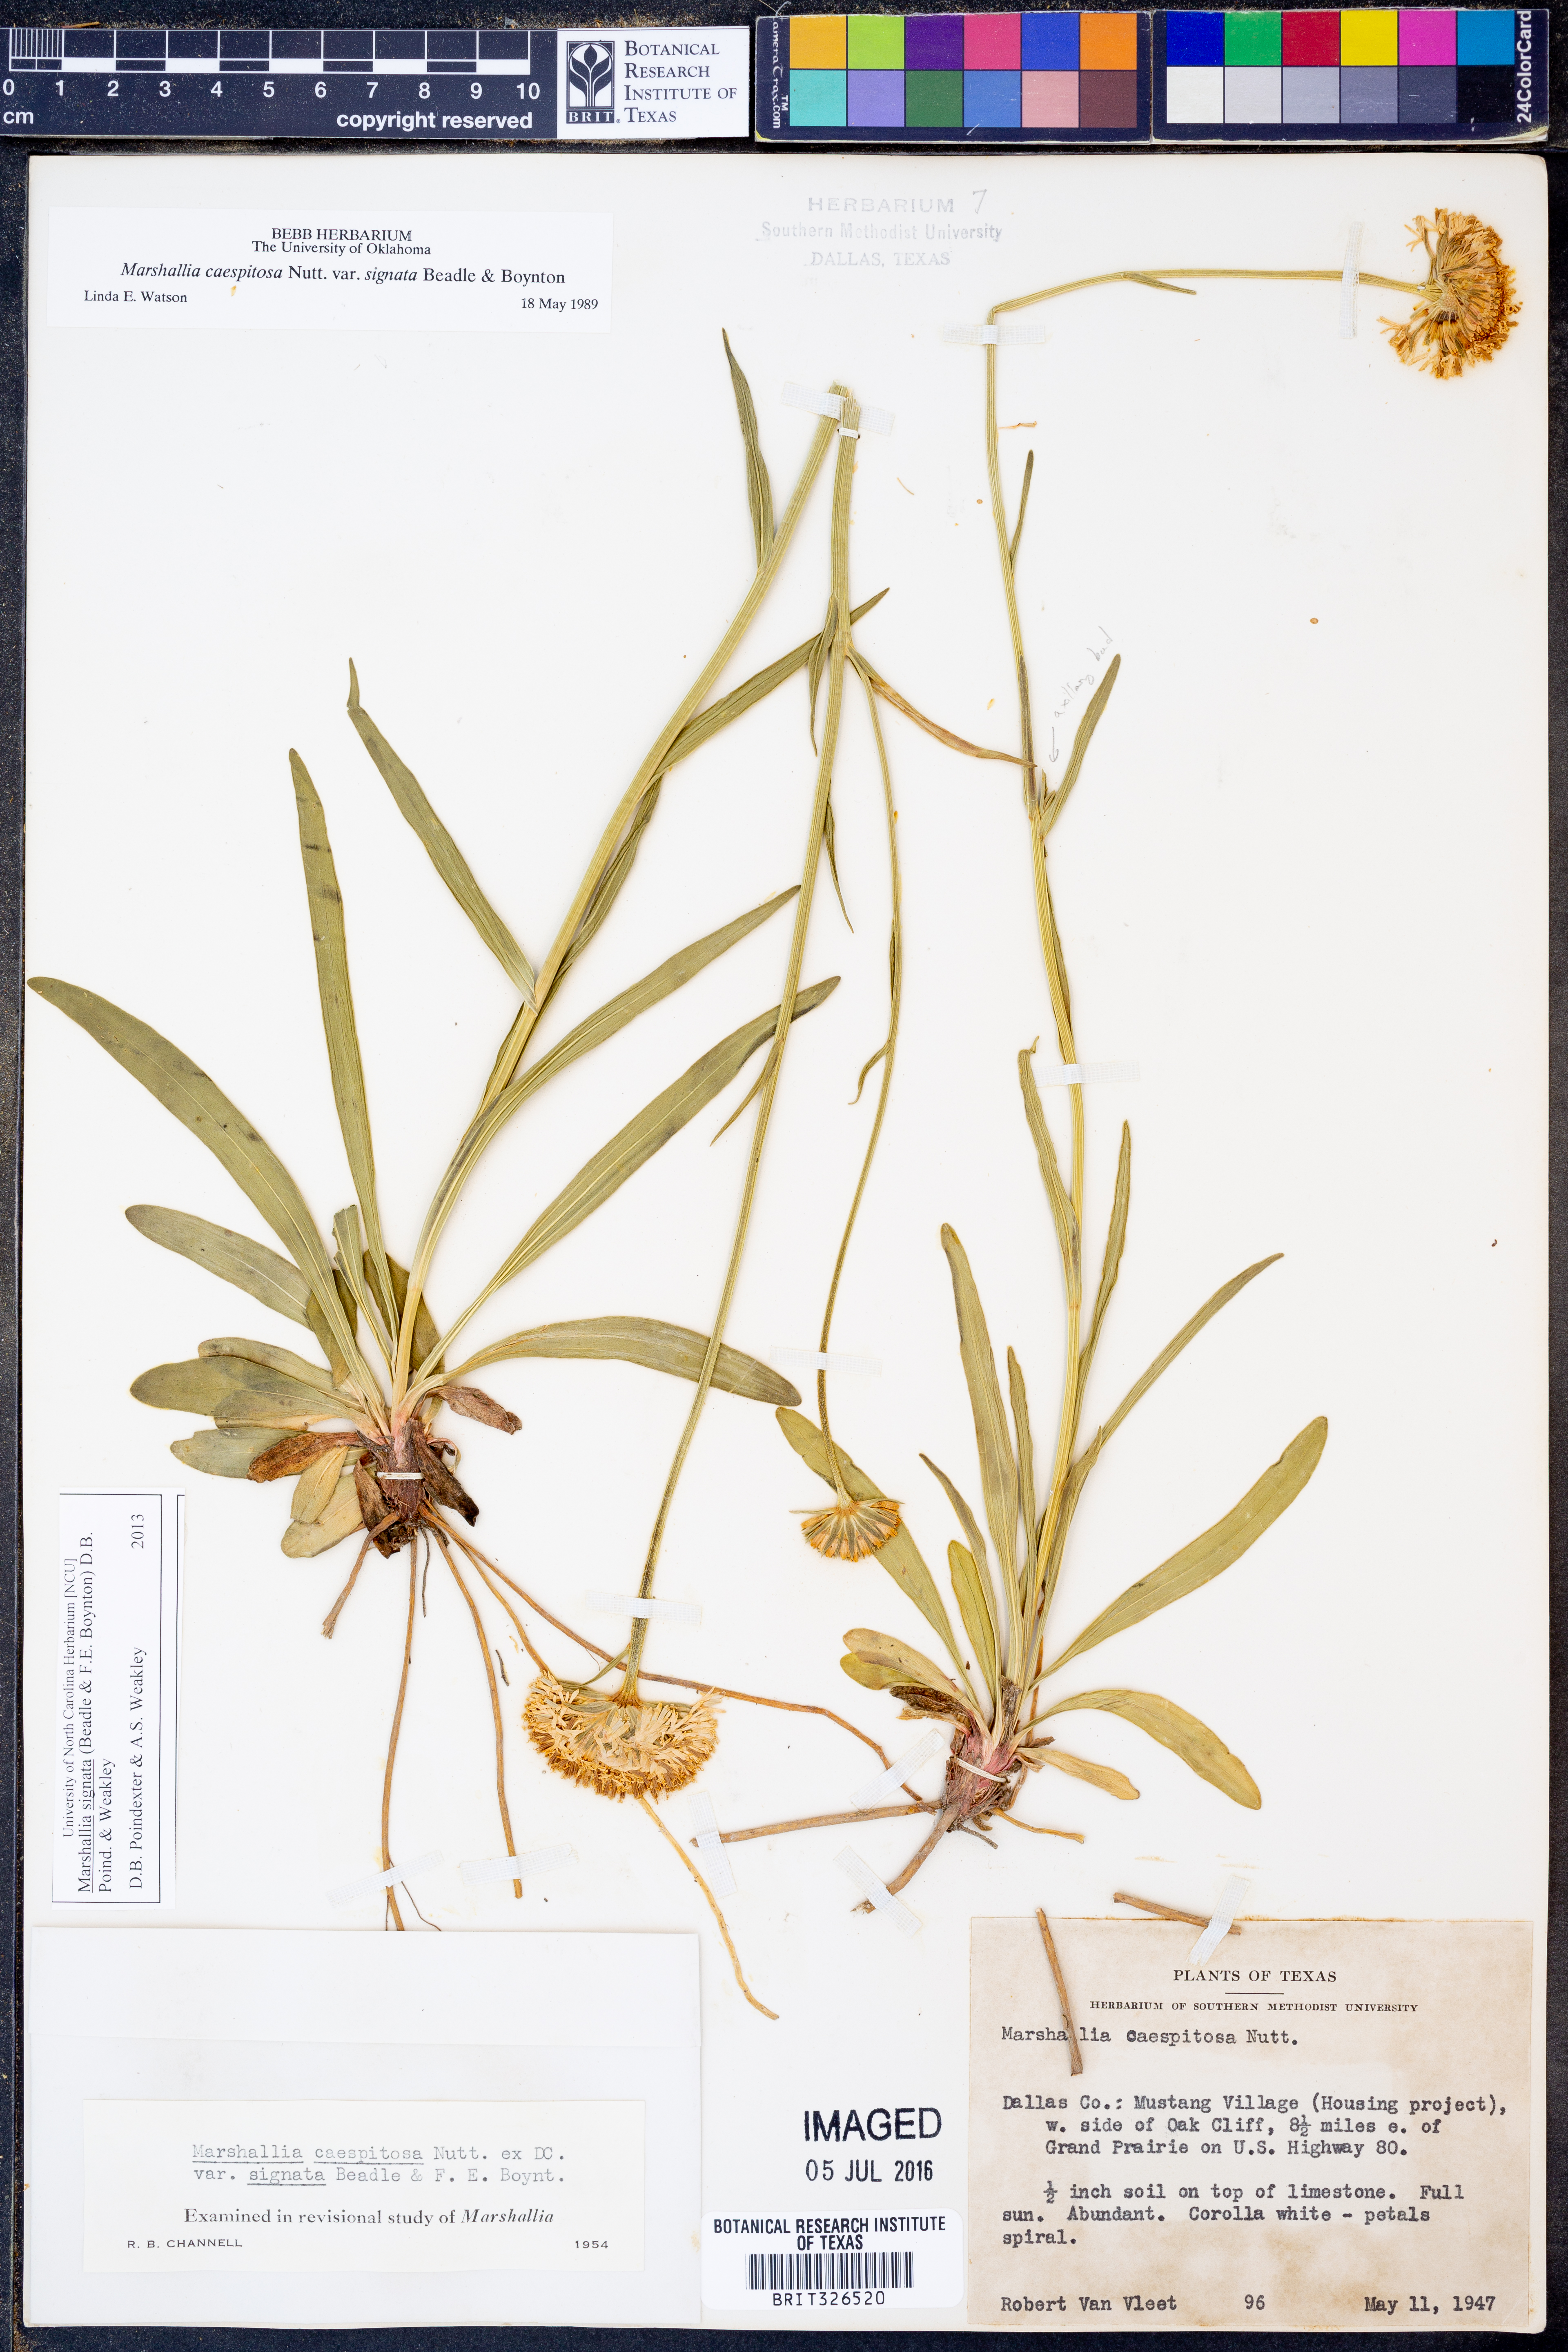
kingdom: Plantae
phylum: Tracheophyta
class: Magnoliopsida
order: Asterales
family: Asteraceae
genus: Marshallia
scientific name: Marshallia
